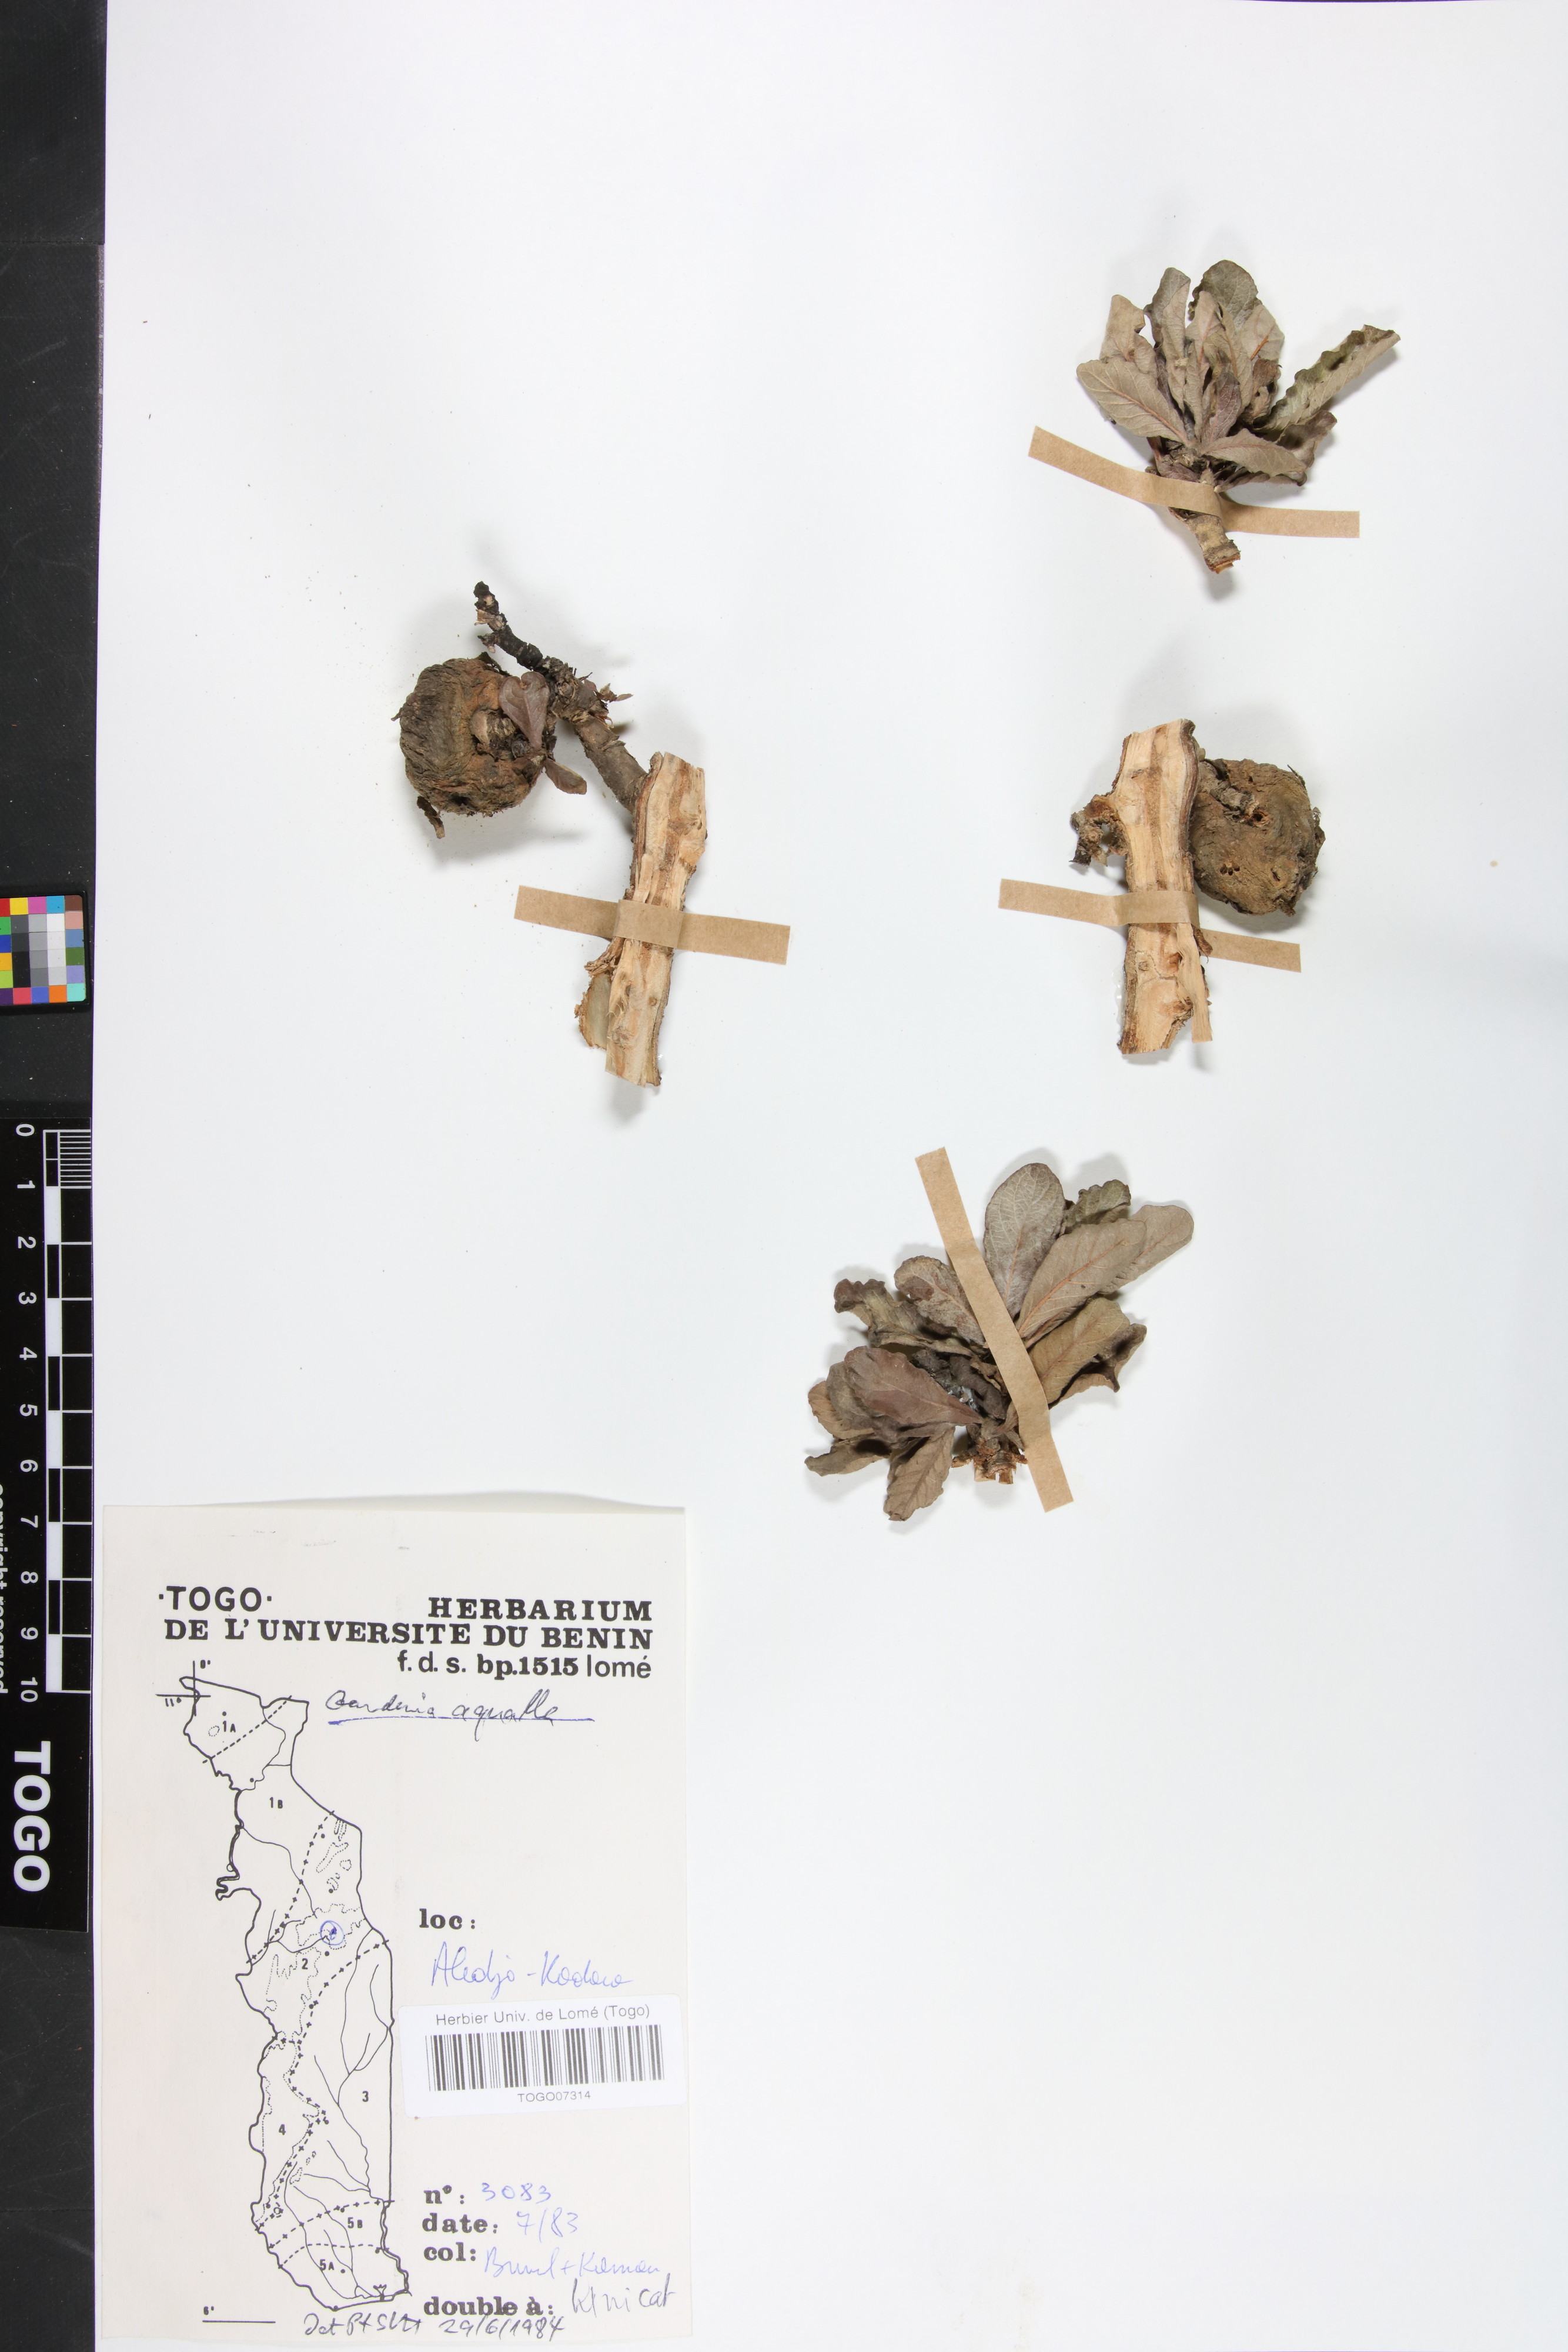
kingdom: Plantae
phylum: Tracheophyta
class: Magnoliopsida
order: Gentianales
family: Rubiaceae
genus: Gardenia
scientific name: Gardenia aqualla
